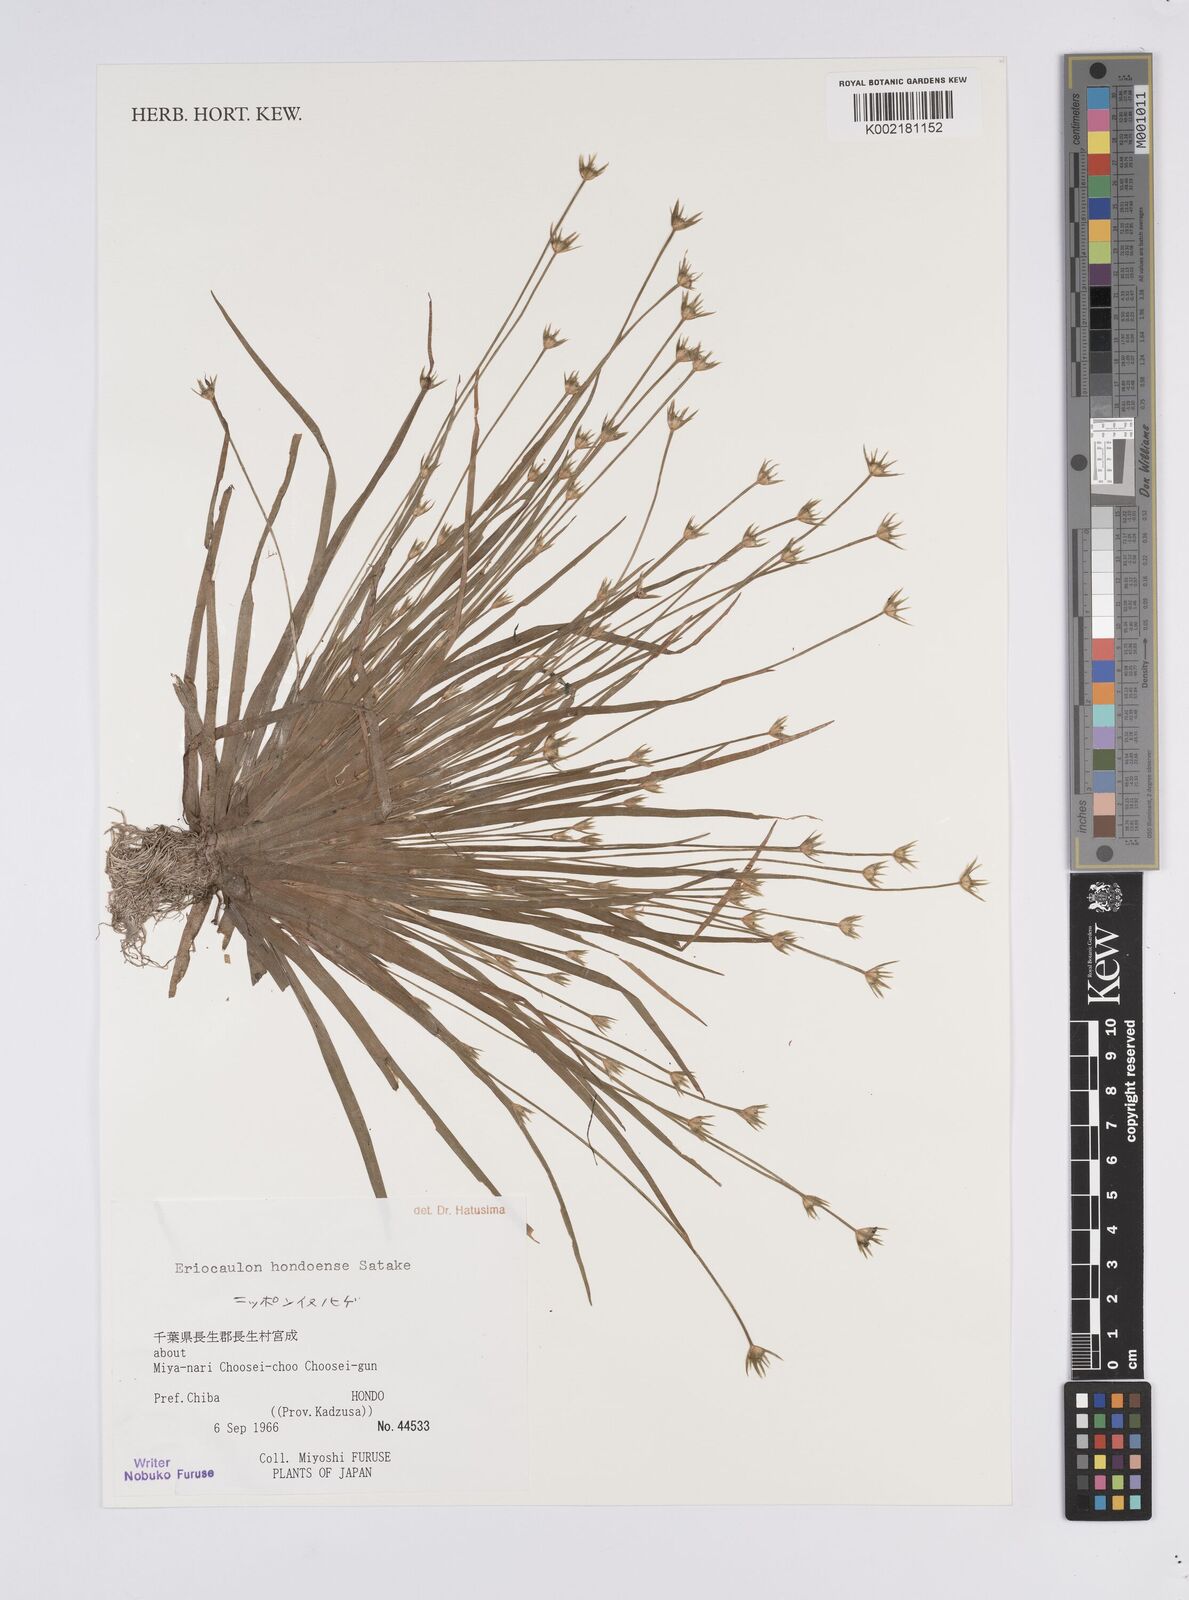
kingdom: Plantae
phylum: Tracheophyta
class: Liliopsida
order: Poales
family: Eriocaulaceae
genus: Eriocaulon
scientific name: Eriocaulon taquetii
